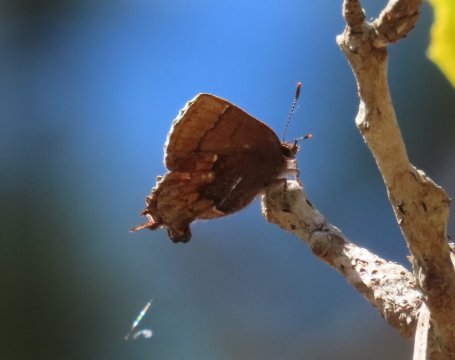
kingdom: Animalia
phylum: Arthropoda
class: Insecta
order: Lepidoptera
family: Lycaenidae
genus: Incisalia
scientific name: Incisalia henrici
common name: Henry's Elfin
